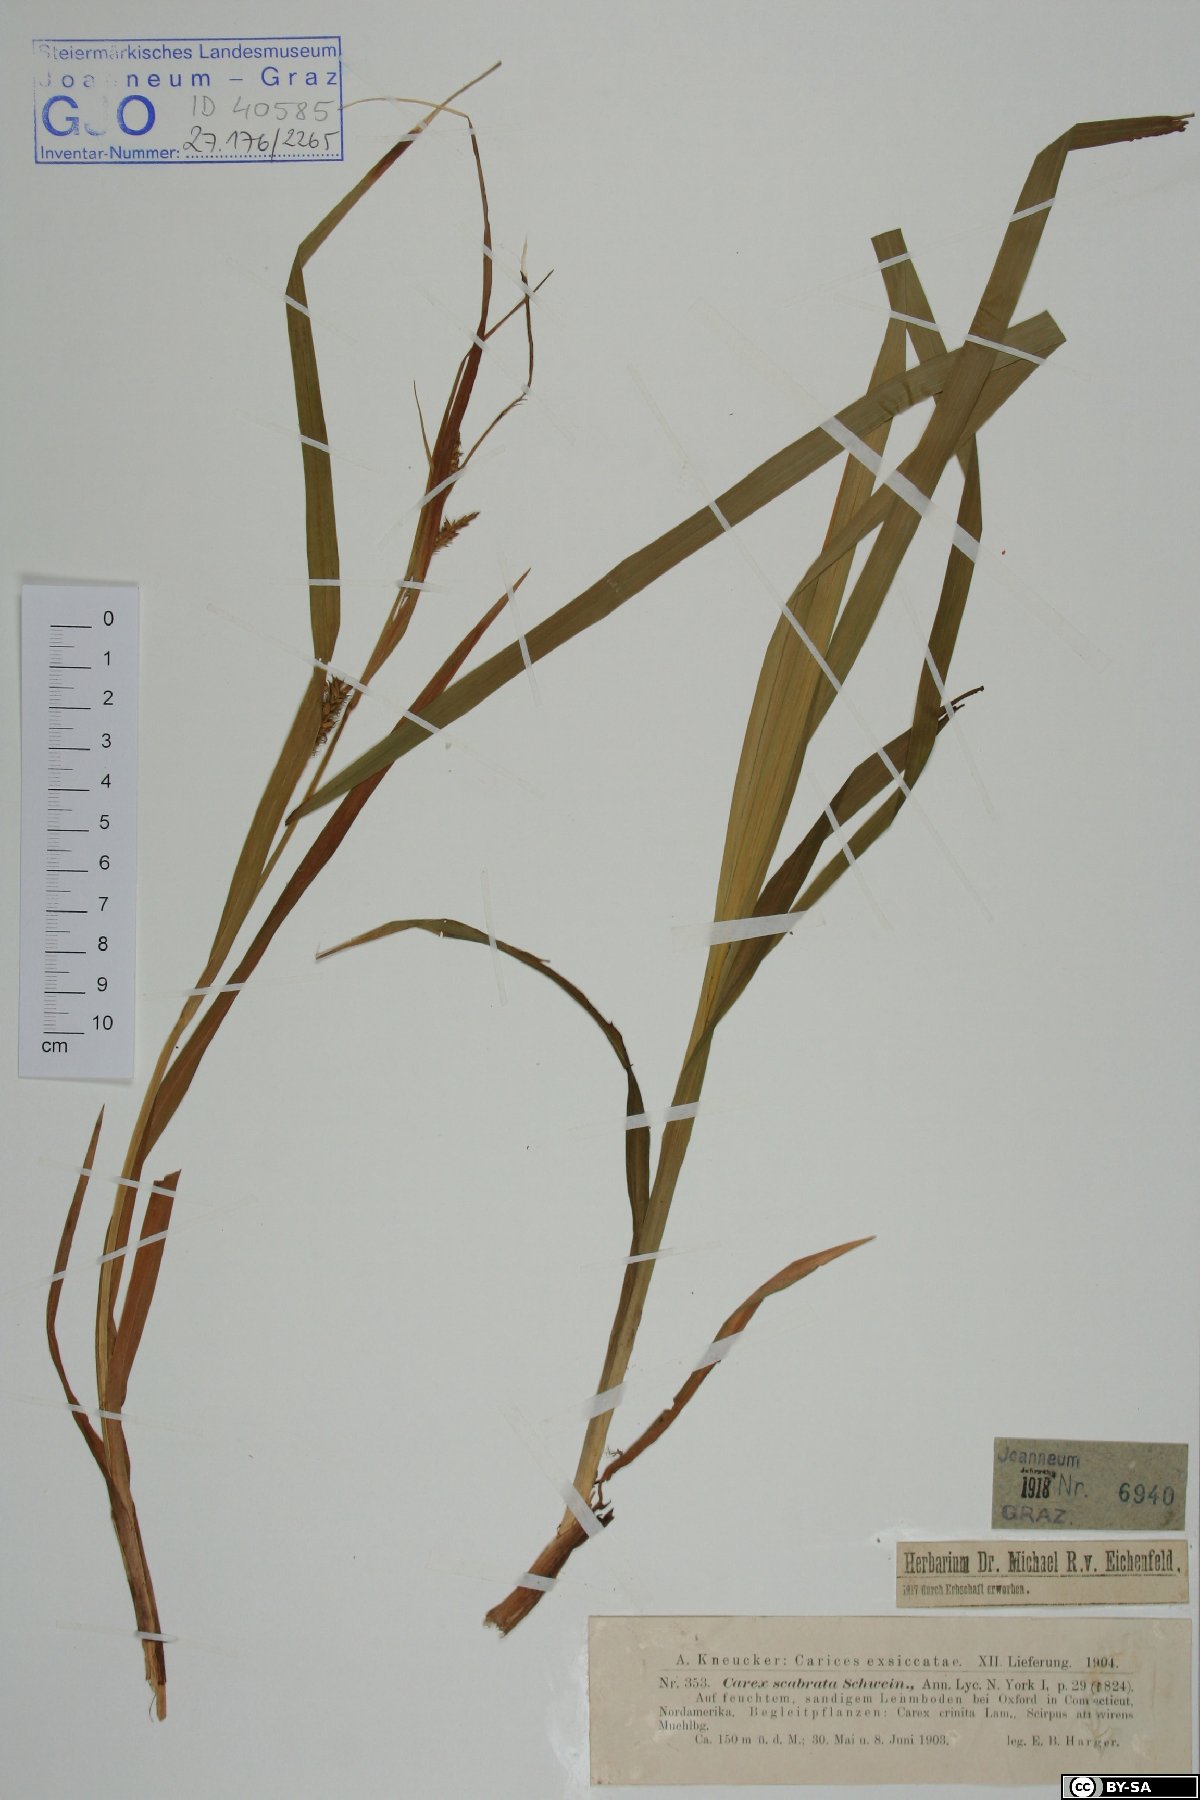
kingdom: Plantae
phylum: Tracheophyta
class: Liliopsida
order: Poales
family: Cyperaceae
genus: Carex
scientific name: Carex scabrata
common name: Eastern rough sedge
